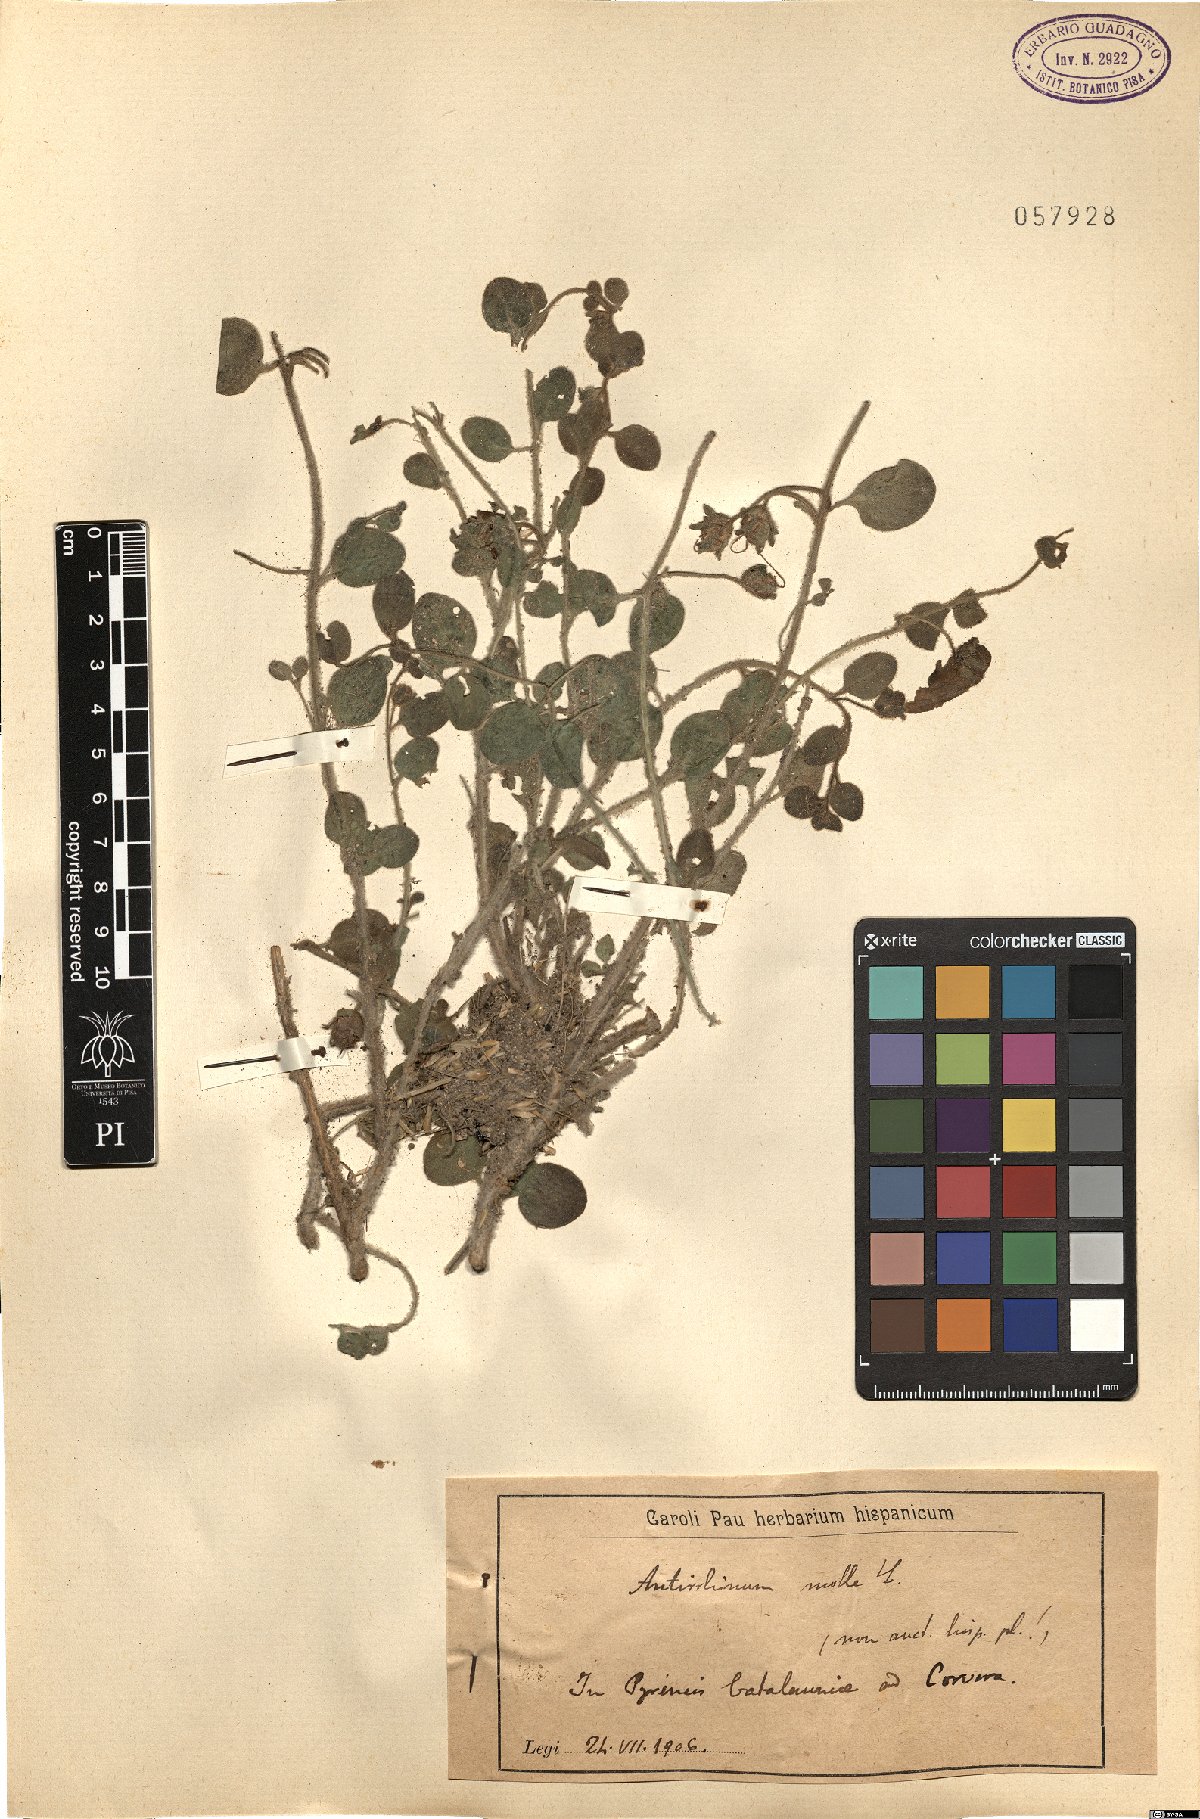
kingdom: Plantae
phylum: Tracheophyta
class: Magnoliopsida
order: Lamiales
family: Plantaginaceae
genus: Antirrhinum
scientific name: Antirrhinum molle
